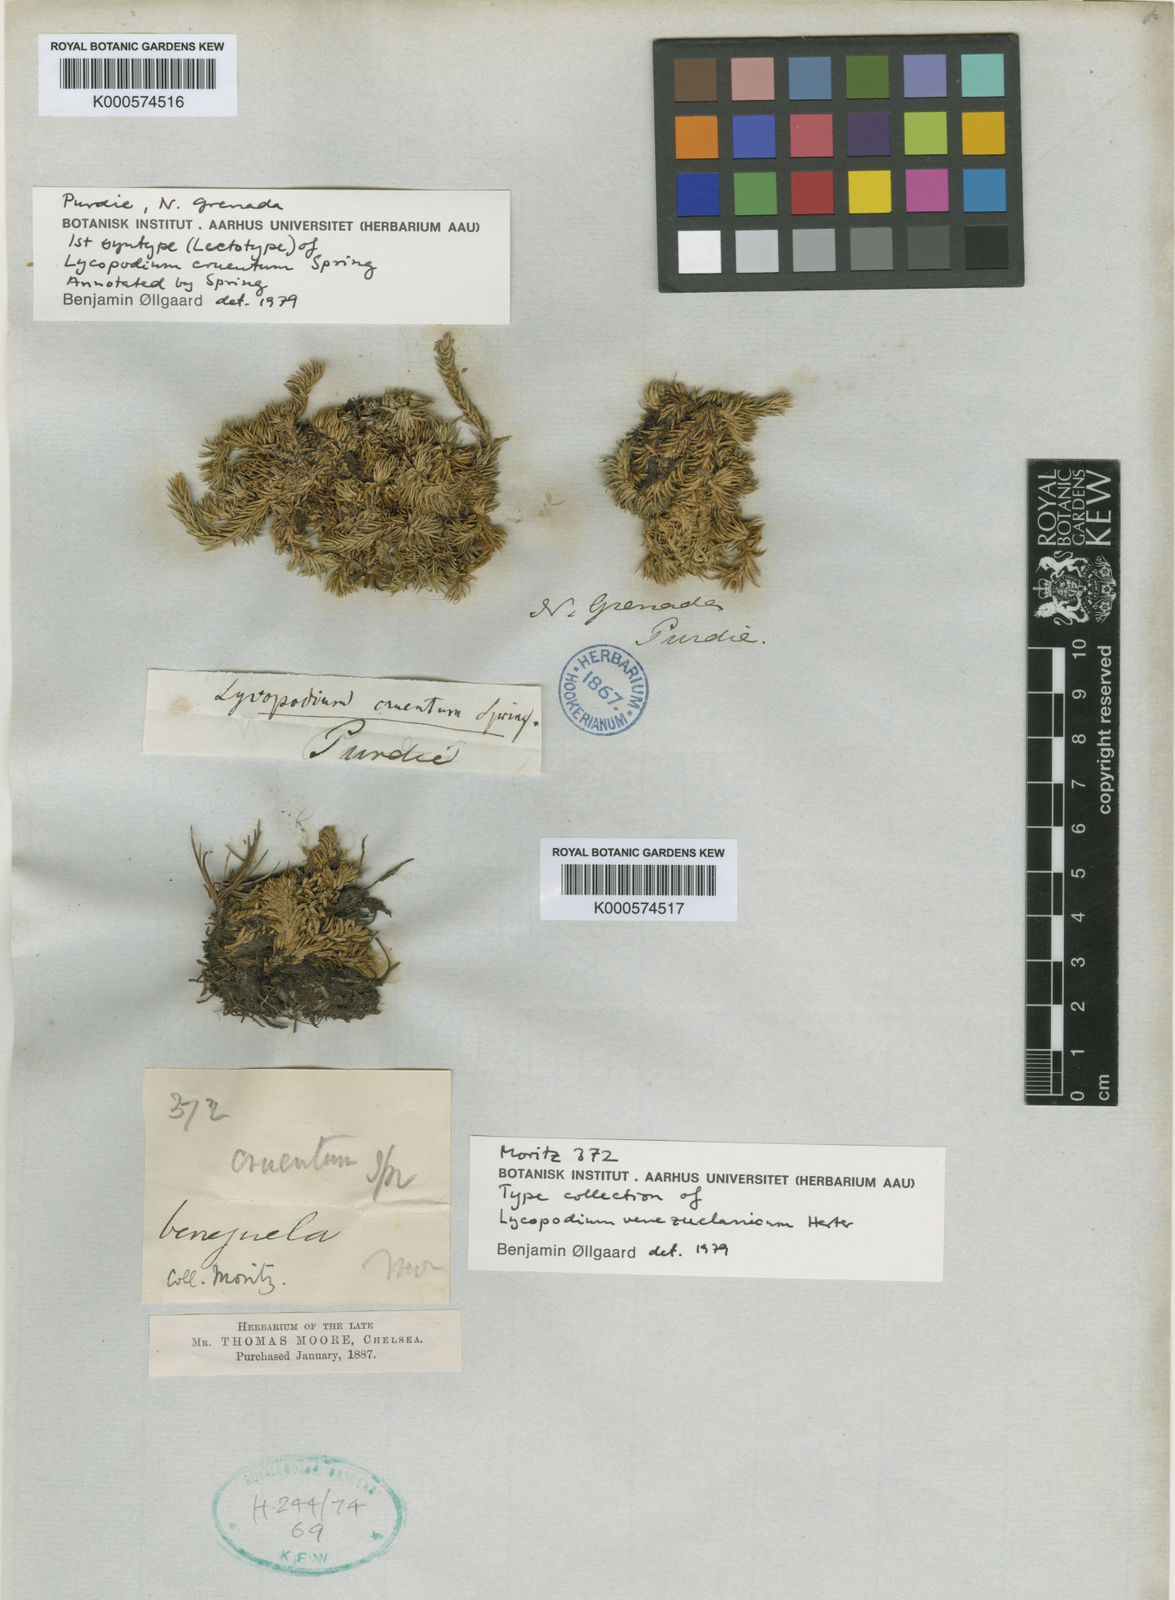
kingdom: Plantae
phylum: Tracheophyta
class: Lycopodiopsida
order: Lycopodiales
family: Lycopodiaceae
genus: Phlegmariurus
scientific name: Phlegmariurus venezuelanicus
